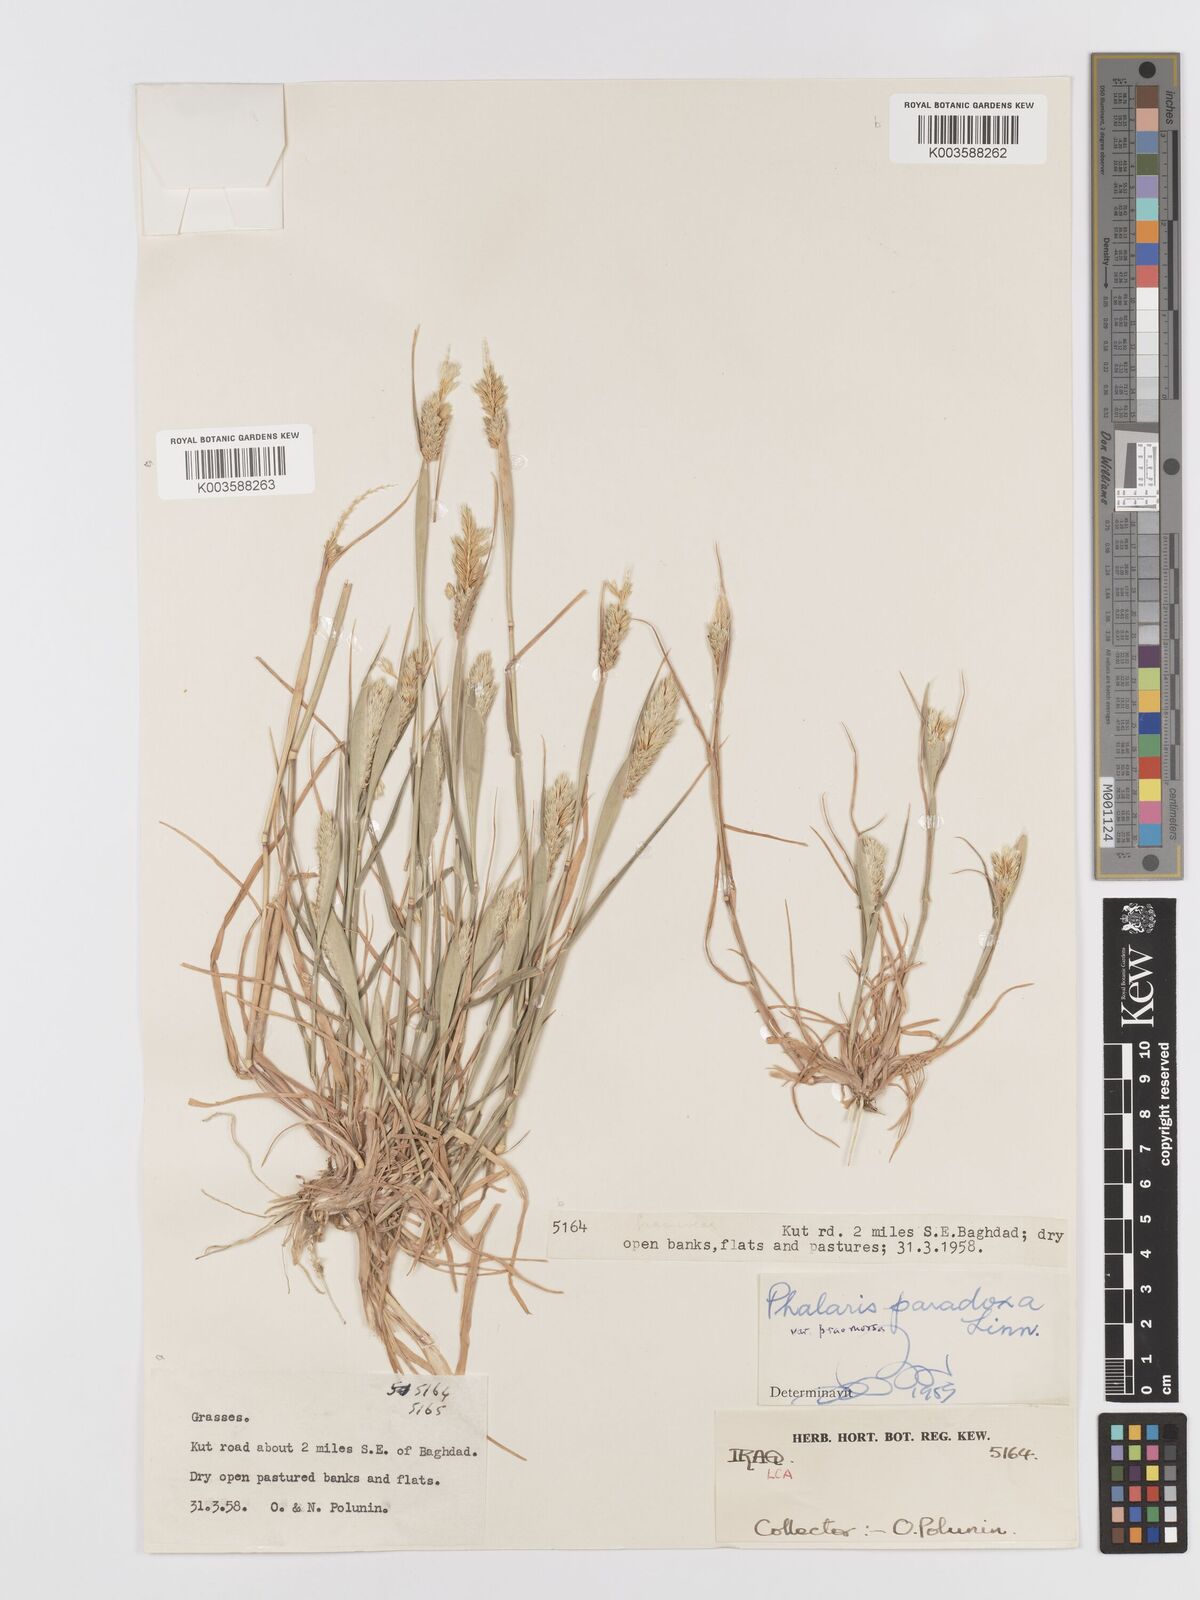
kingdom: Plantae
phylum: Tracheophyta
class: Liliopsida
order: Poales
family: Poaceae
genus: Phalaris
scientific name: Phalaris paradoxa
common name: Awned canary-grass
